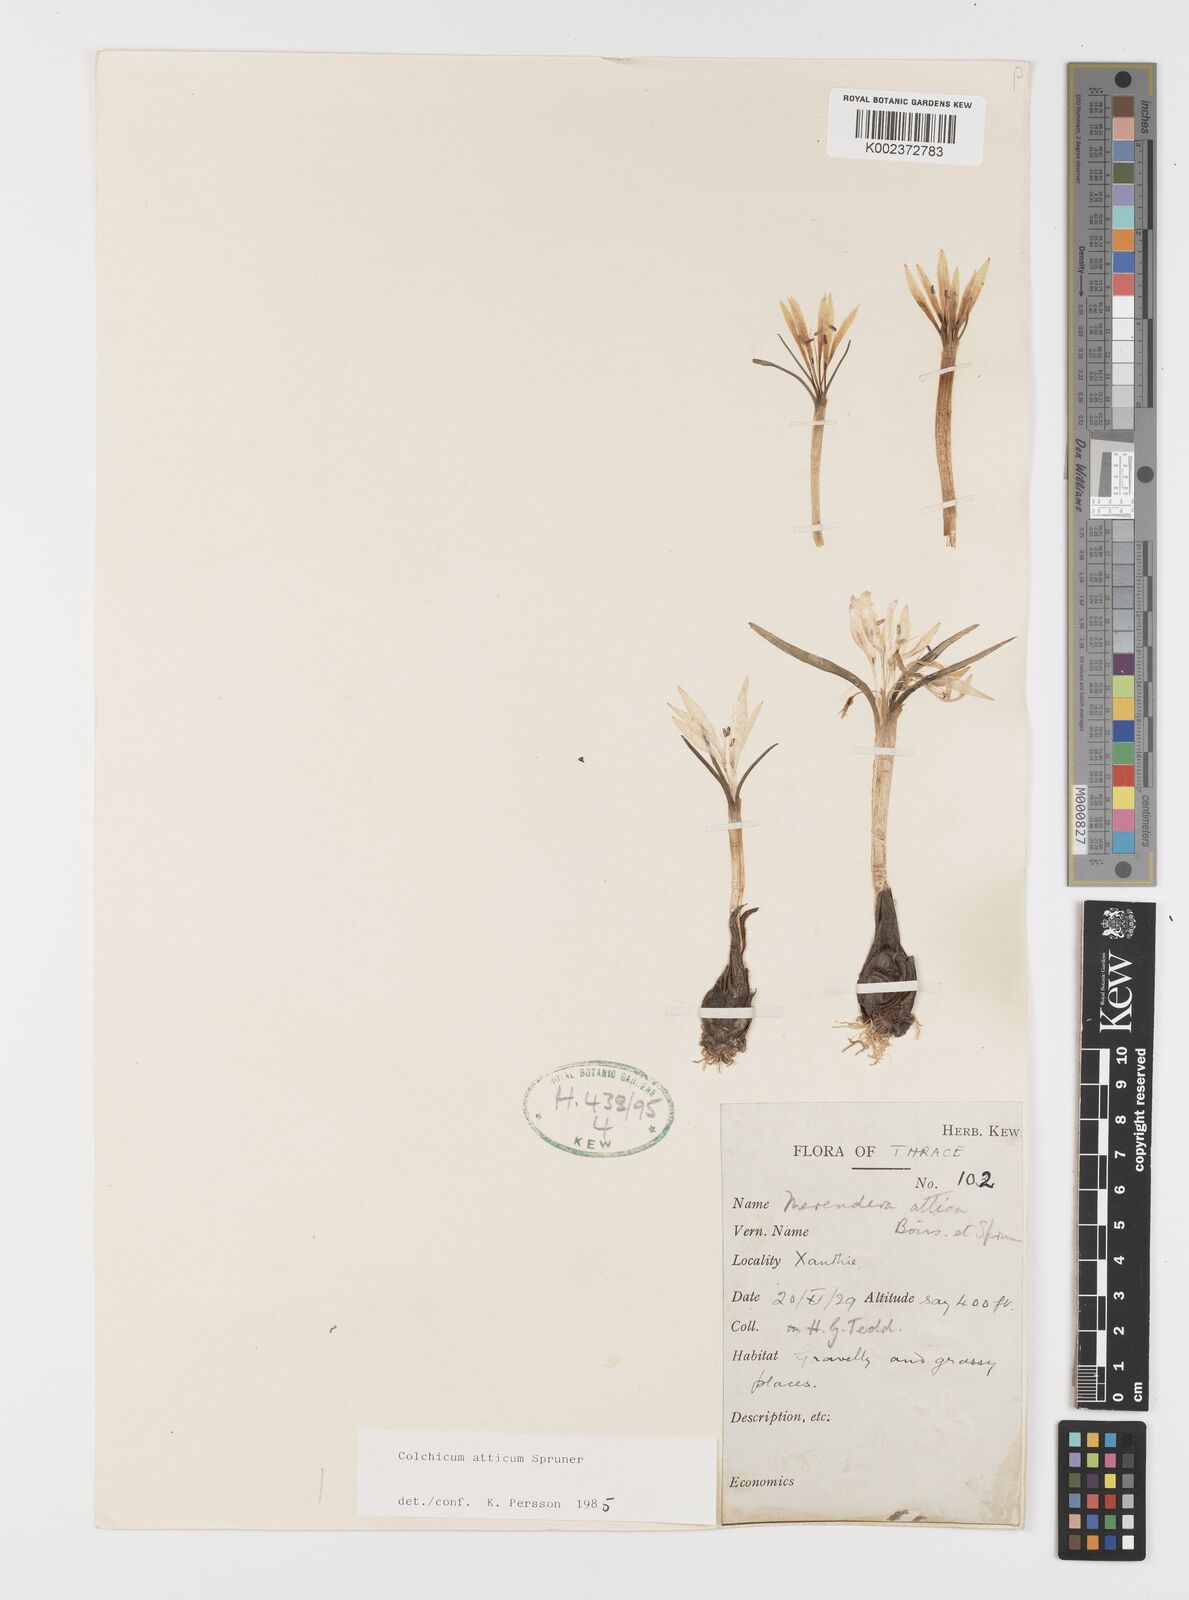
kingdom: Plantae
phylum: Tracheophyta
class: Liliopsida
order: Liliales
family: Colchicaceae
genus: Colchicum
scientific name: Colchicum atticum
